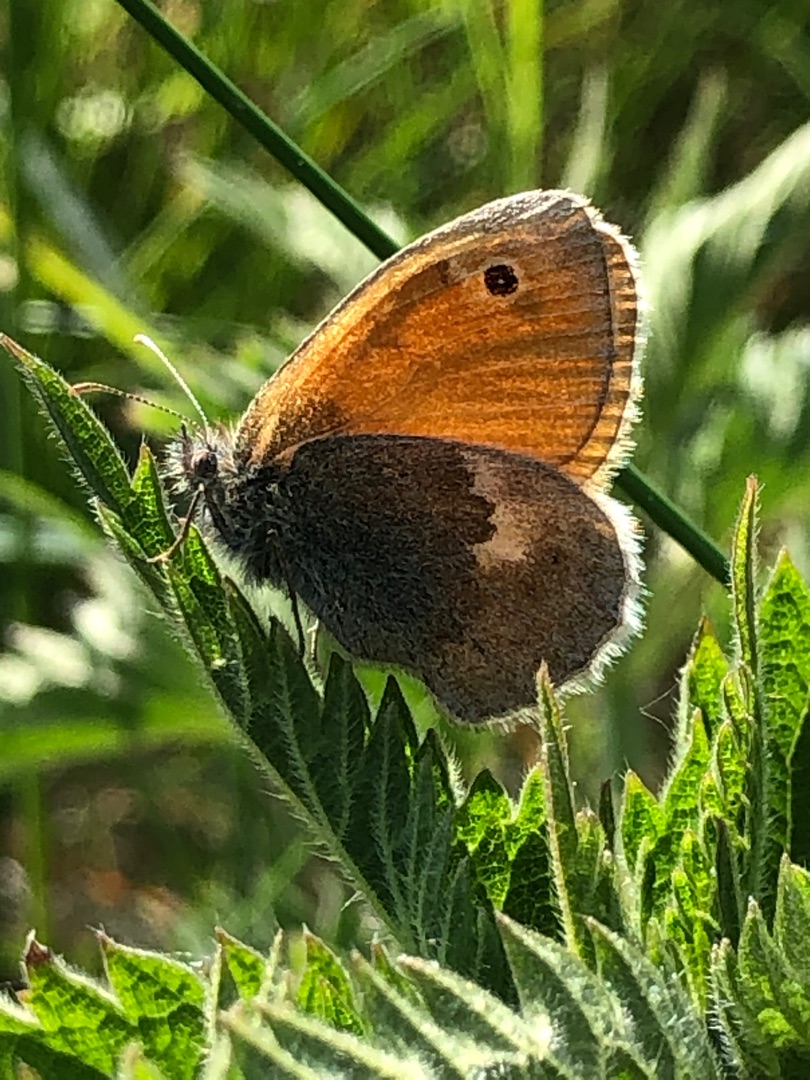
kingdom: Animalia
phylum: Arthropoda
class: Insecta
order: Lepidoptera
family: Nymphalidae
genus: Coenonympha
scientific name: Coenonympha pamphilus
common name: Okkergul randøje
